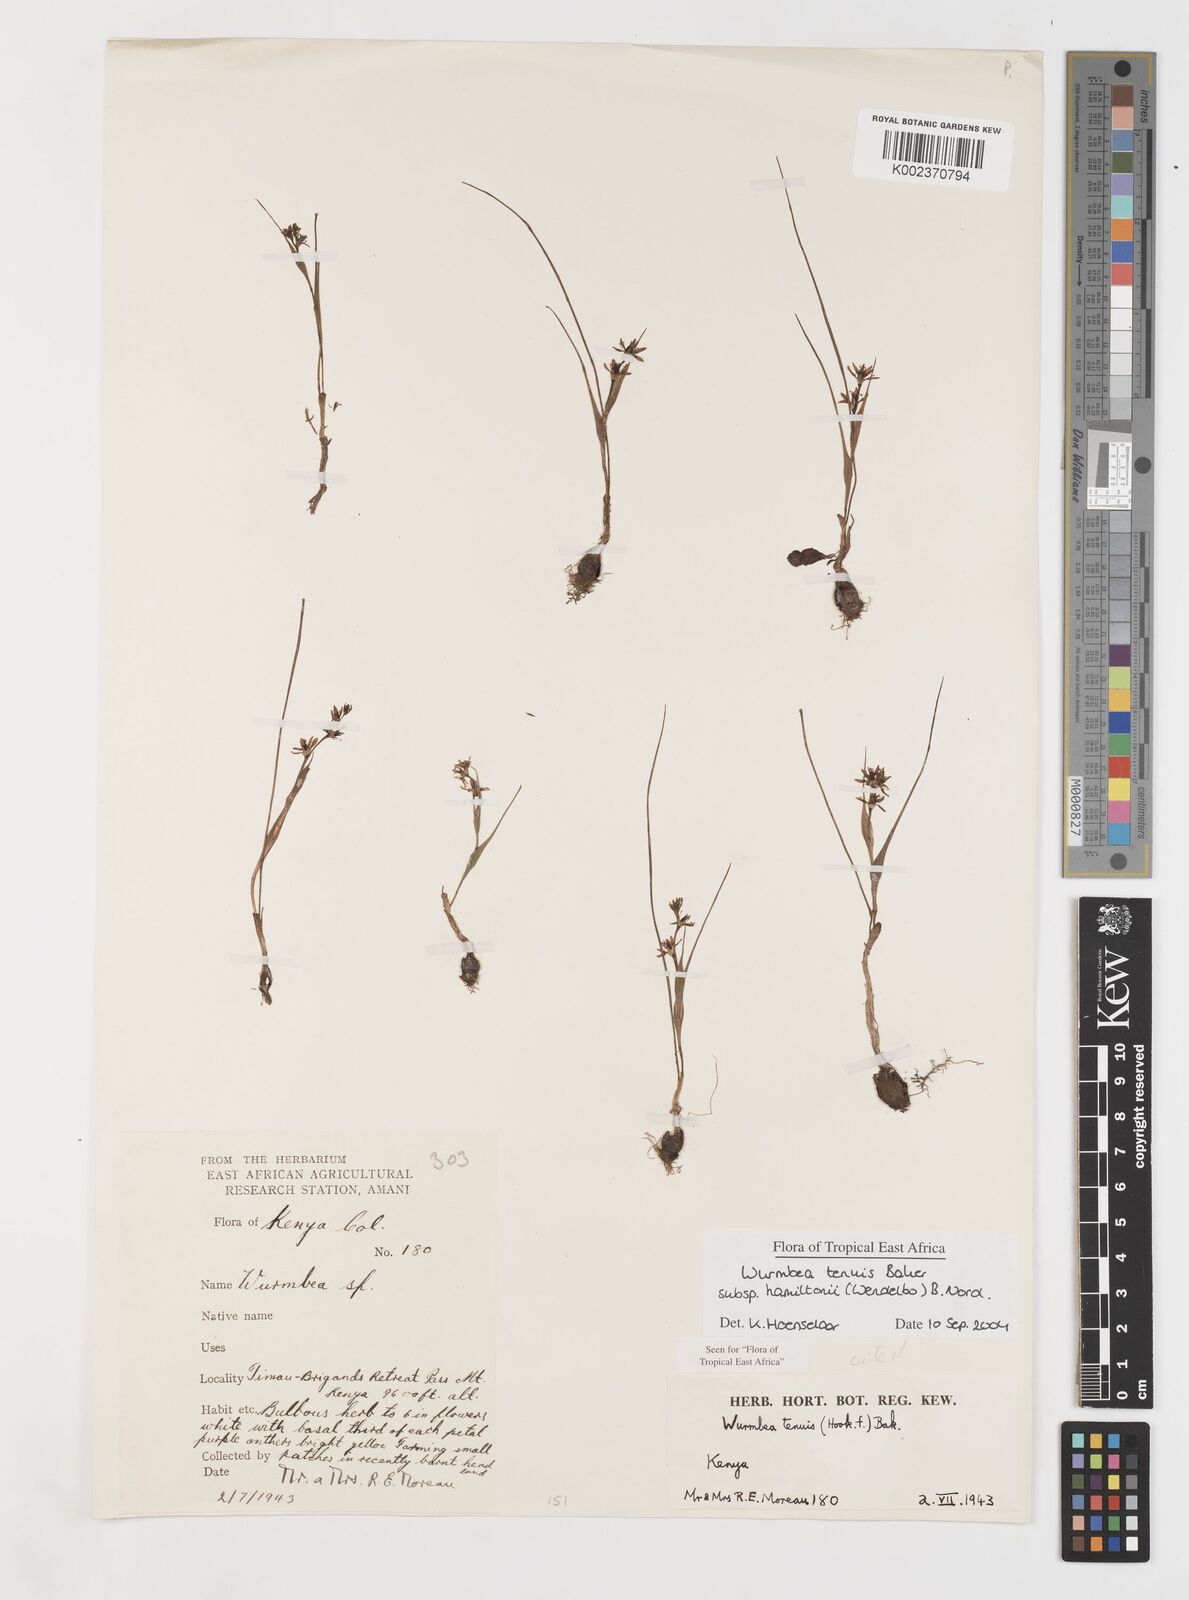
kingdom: Plantae
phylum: Tracheophyta
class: Liliopsida
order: Liliales
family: Colchicaceae
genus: Wurmbea
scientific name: Wurmbea tenuis
